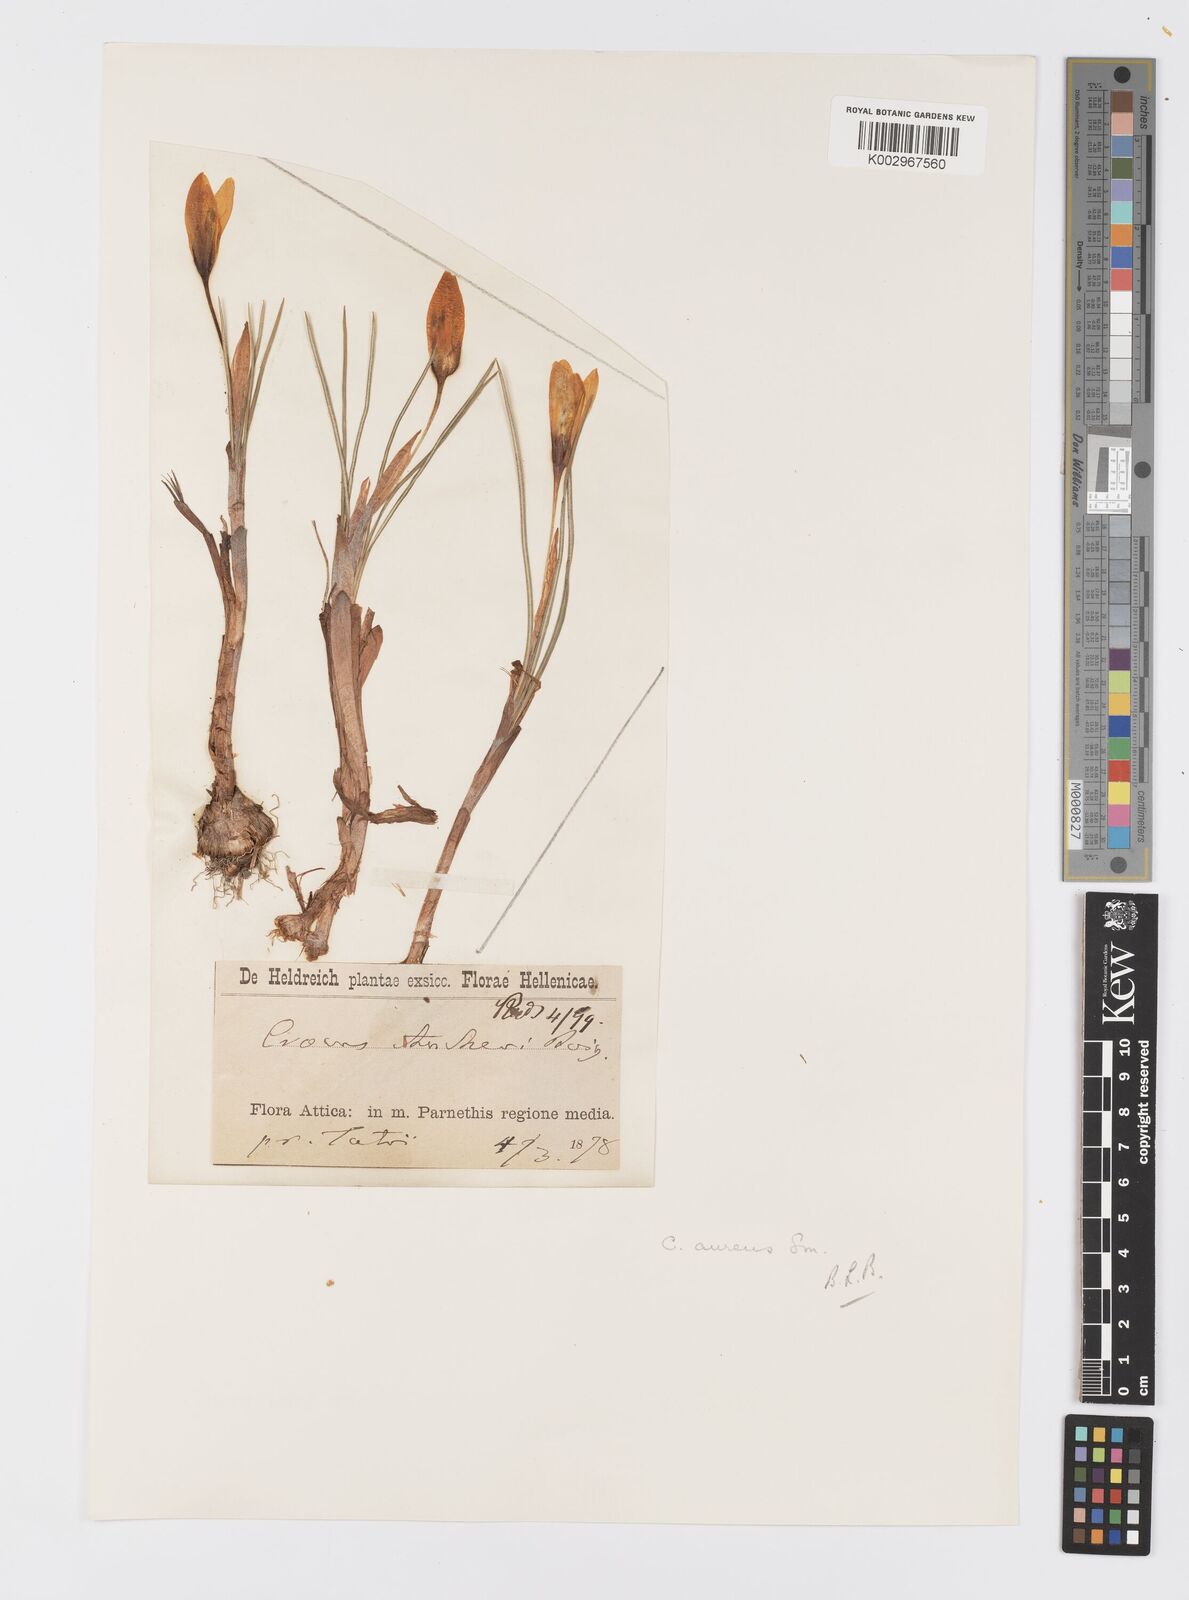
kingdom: Plantae
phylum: Tracheophyta
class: Liliopsida
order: Asparagales
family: Iridaceae
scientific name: Iridaceae
